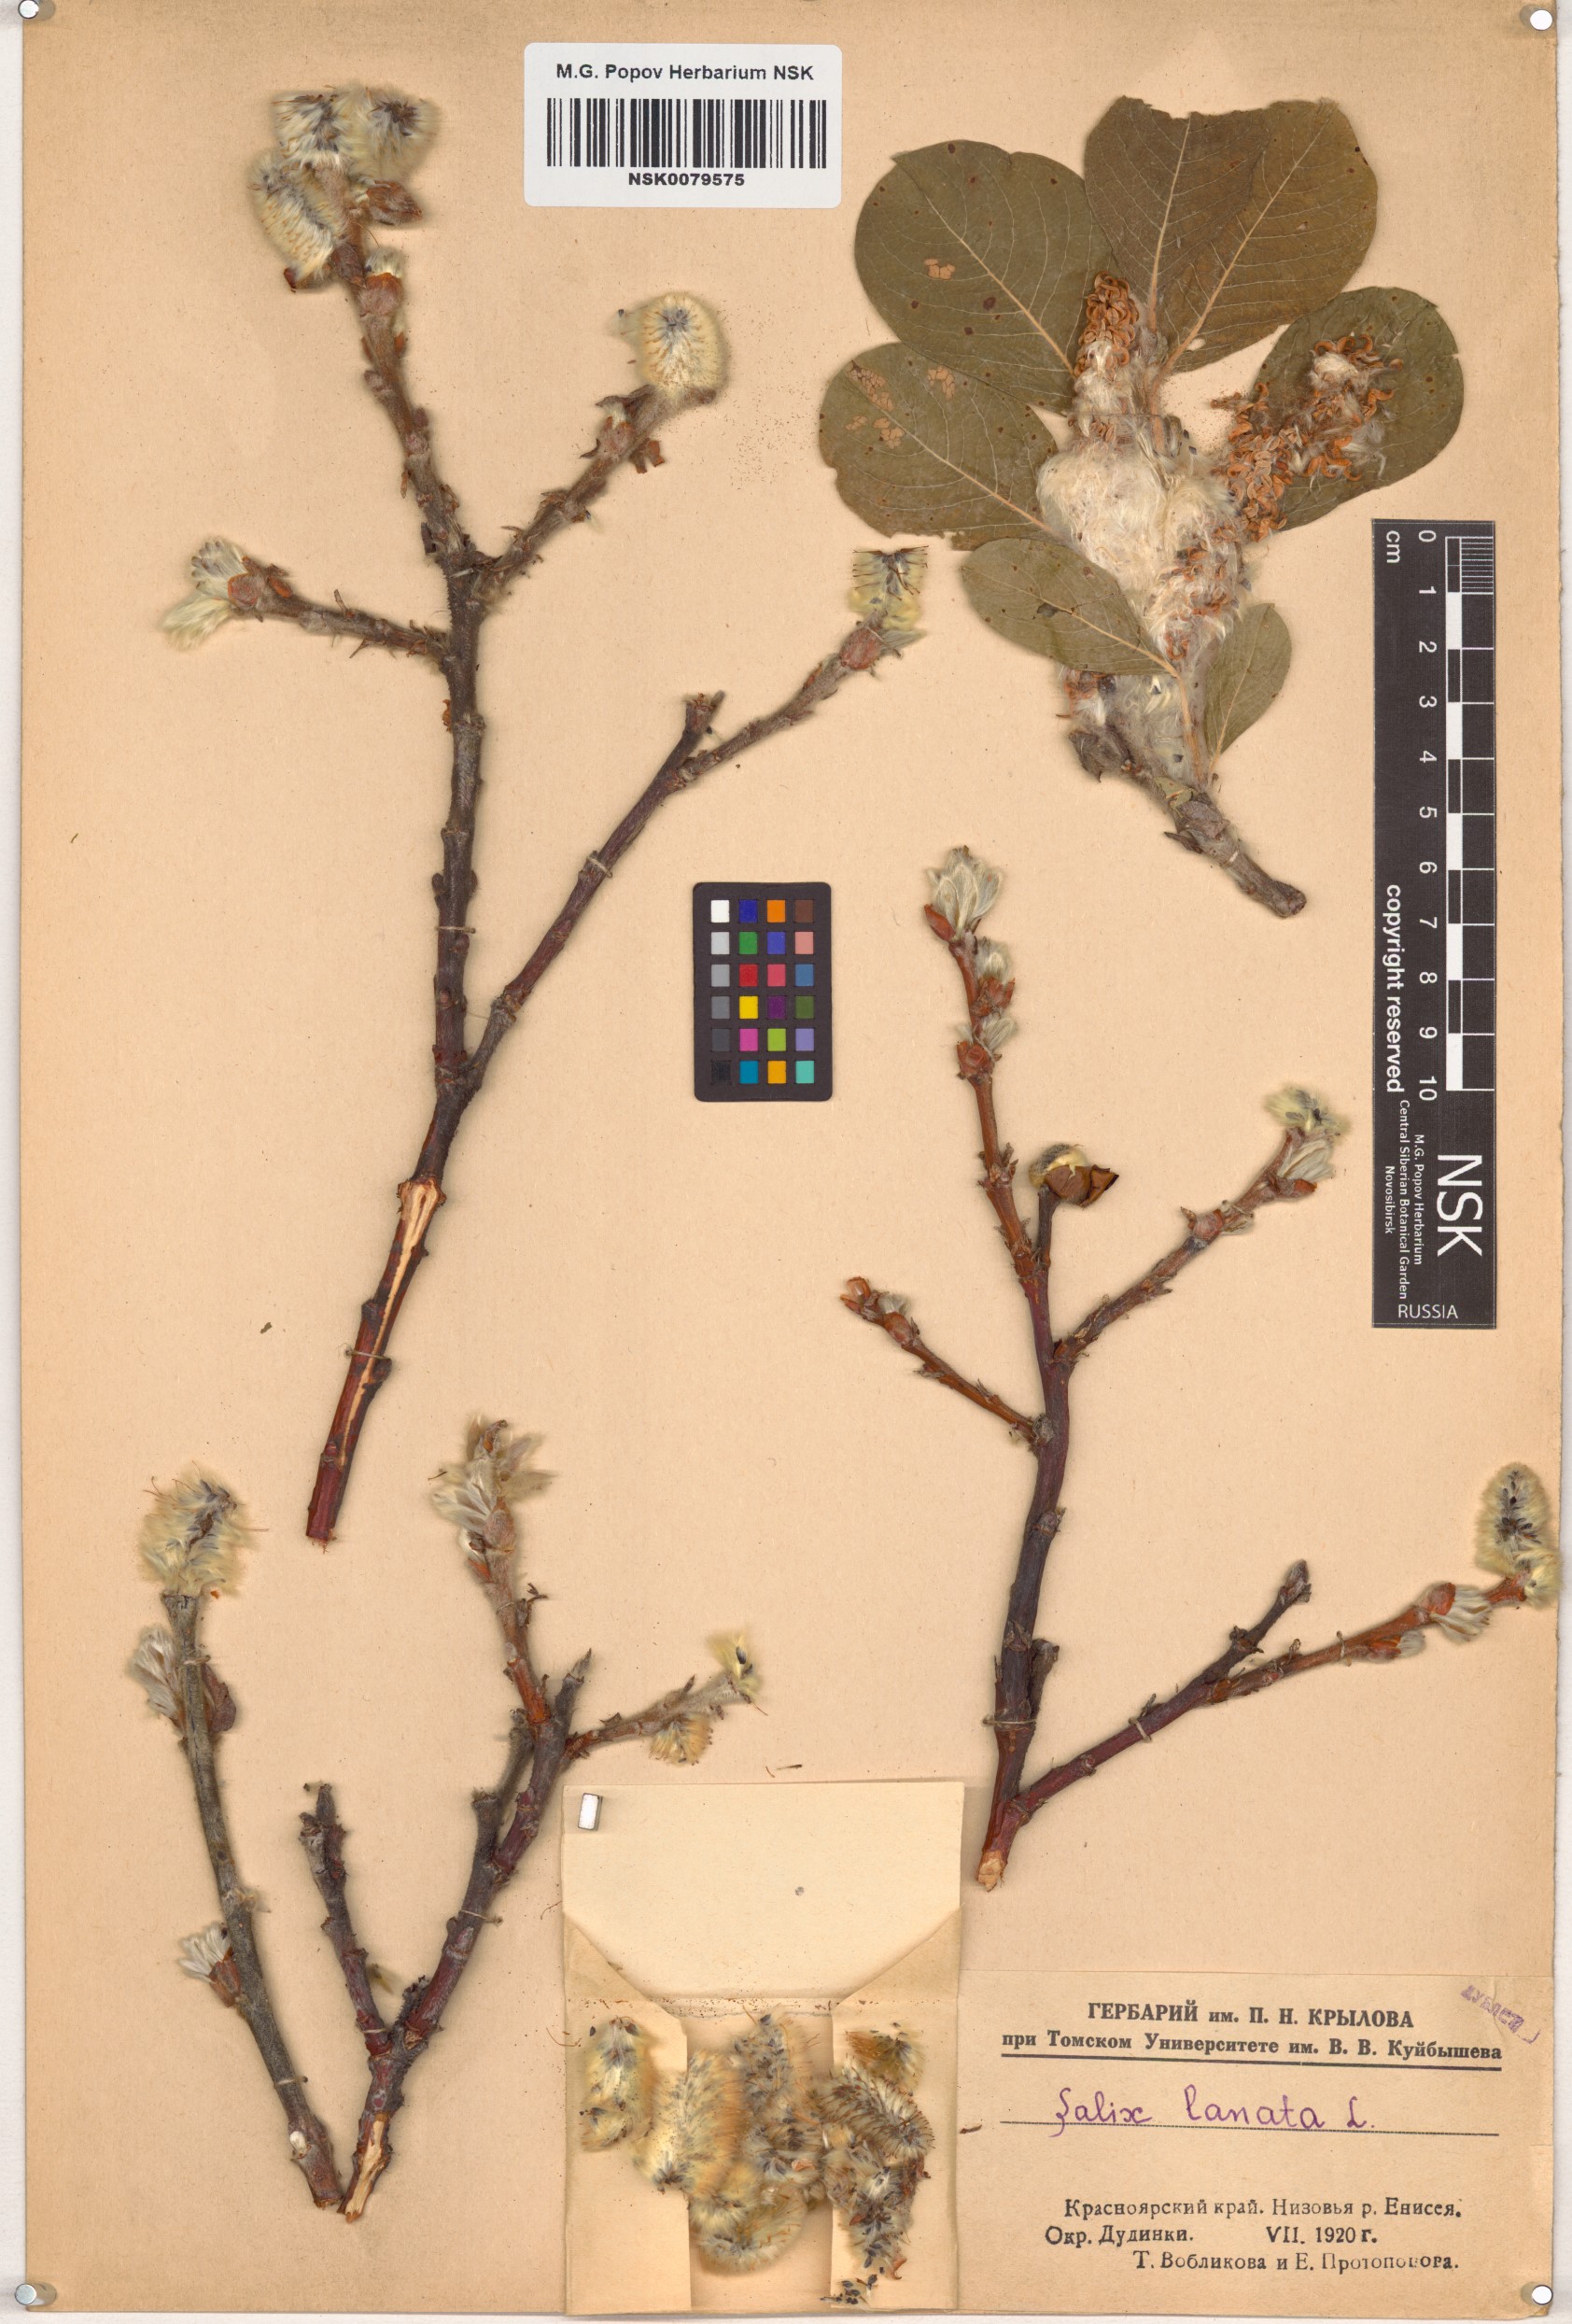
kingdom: Plantae
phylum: Tracheophyta
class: Magnoliopsida
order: Malpighiales
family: Salicaceae
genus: Salix
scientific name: Salix lanata
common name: Woolly willow
